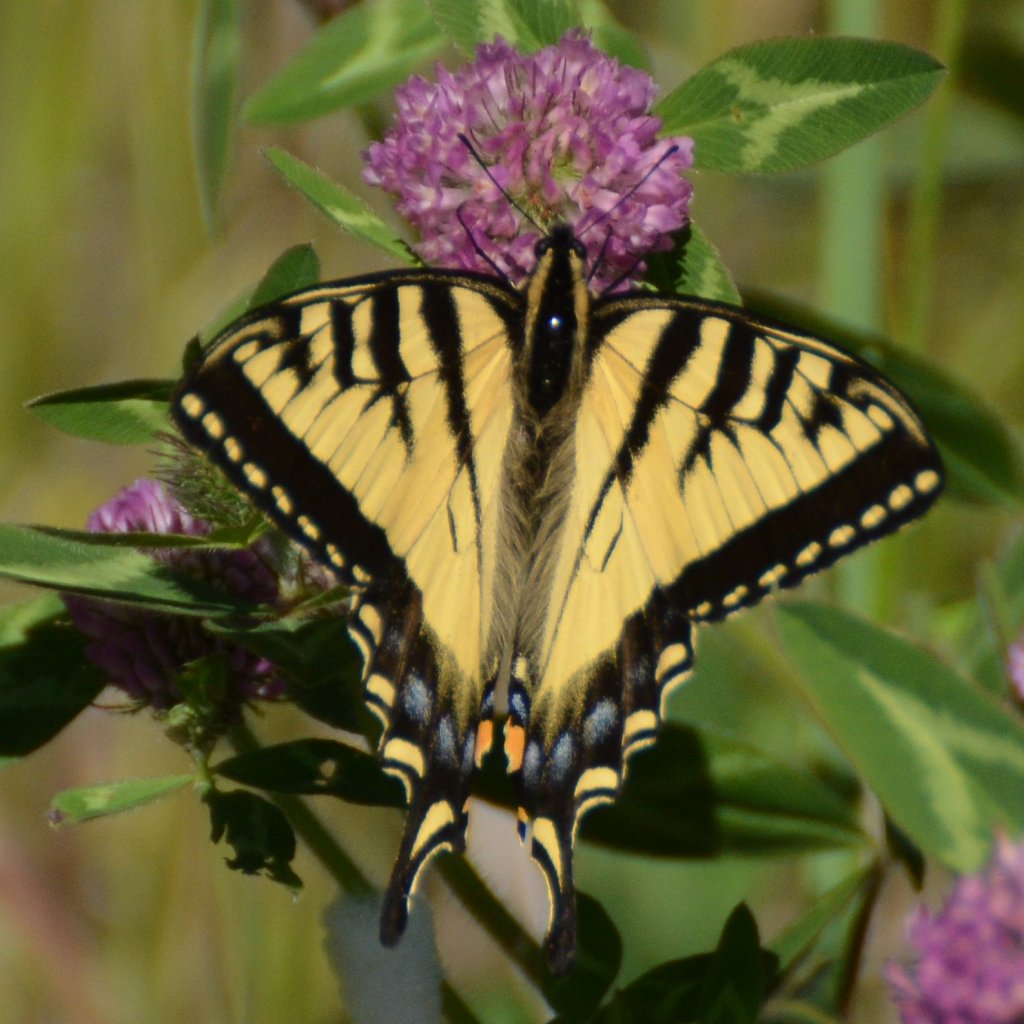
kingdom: Animalia
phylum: Arthropoda
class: Insecta
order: Lepidoptera
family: Papilionidae
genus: Pterourus
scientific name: Pterourus canadensis
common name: Canadian Tiger Swallowtail
